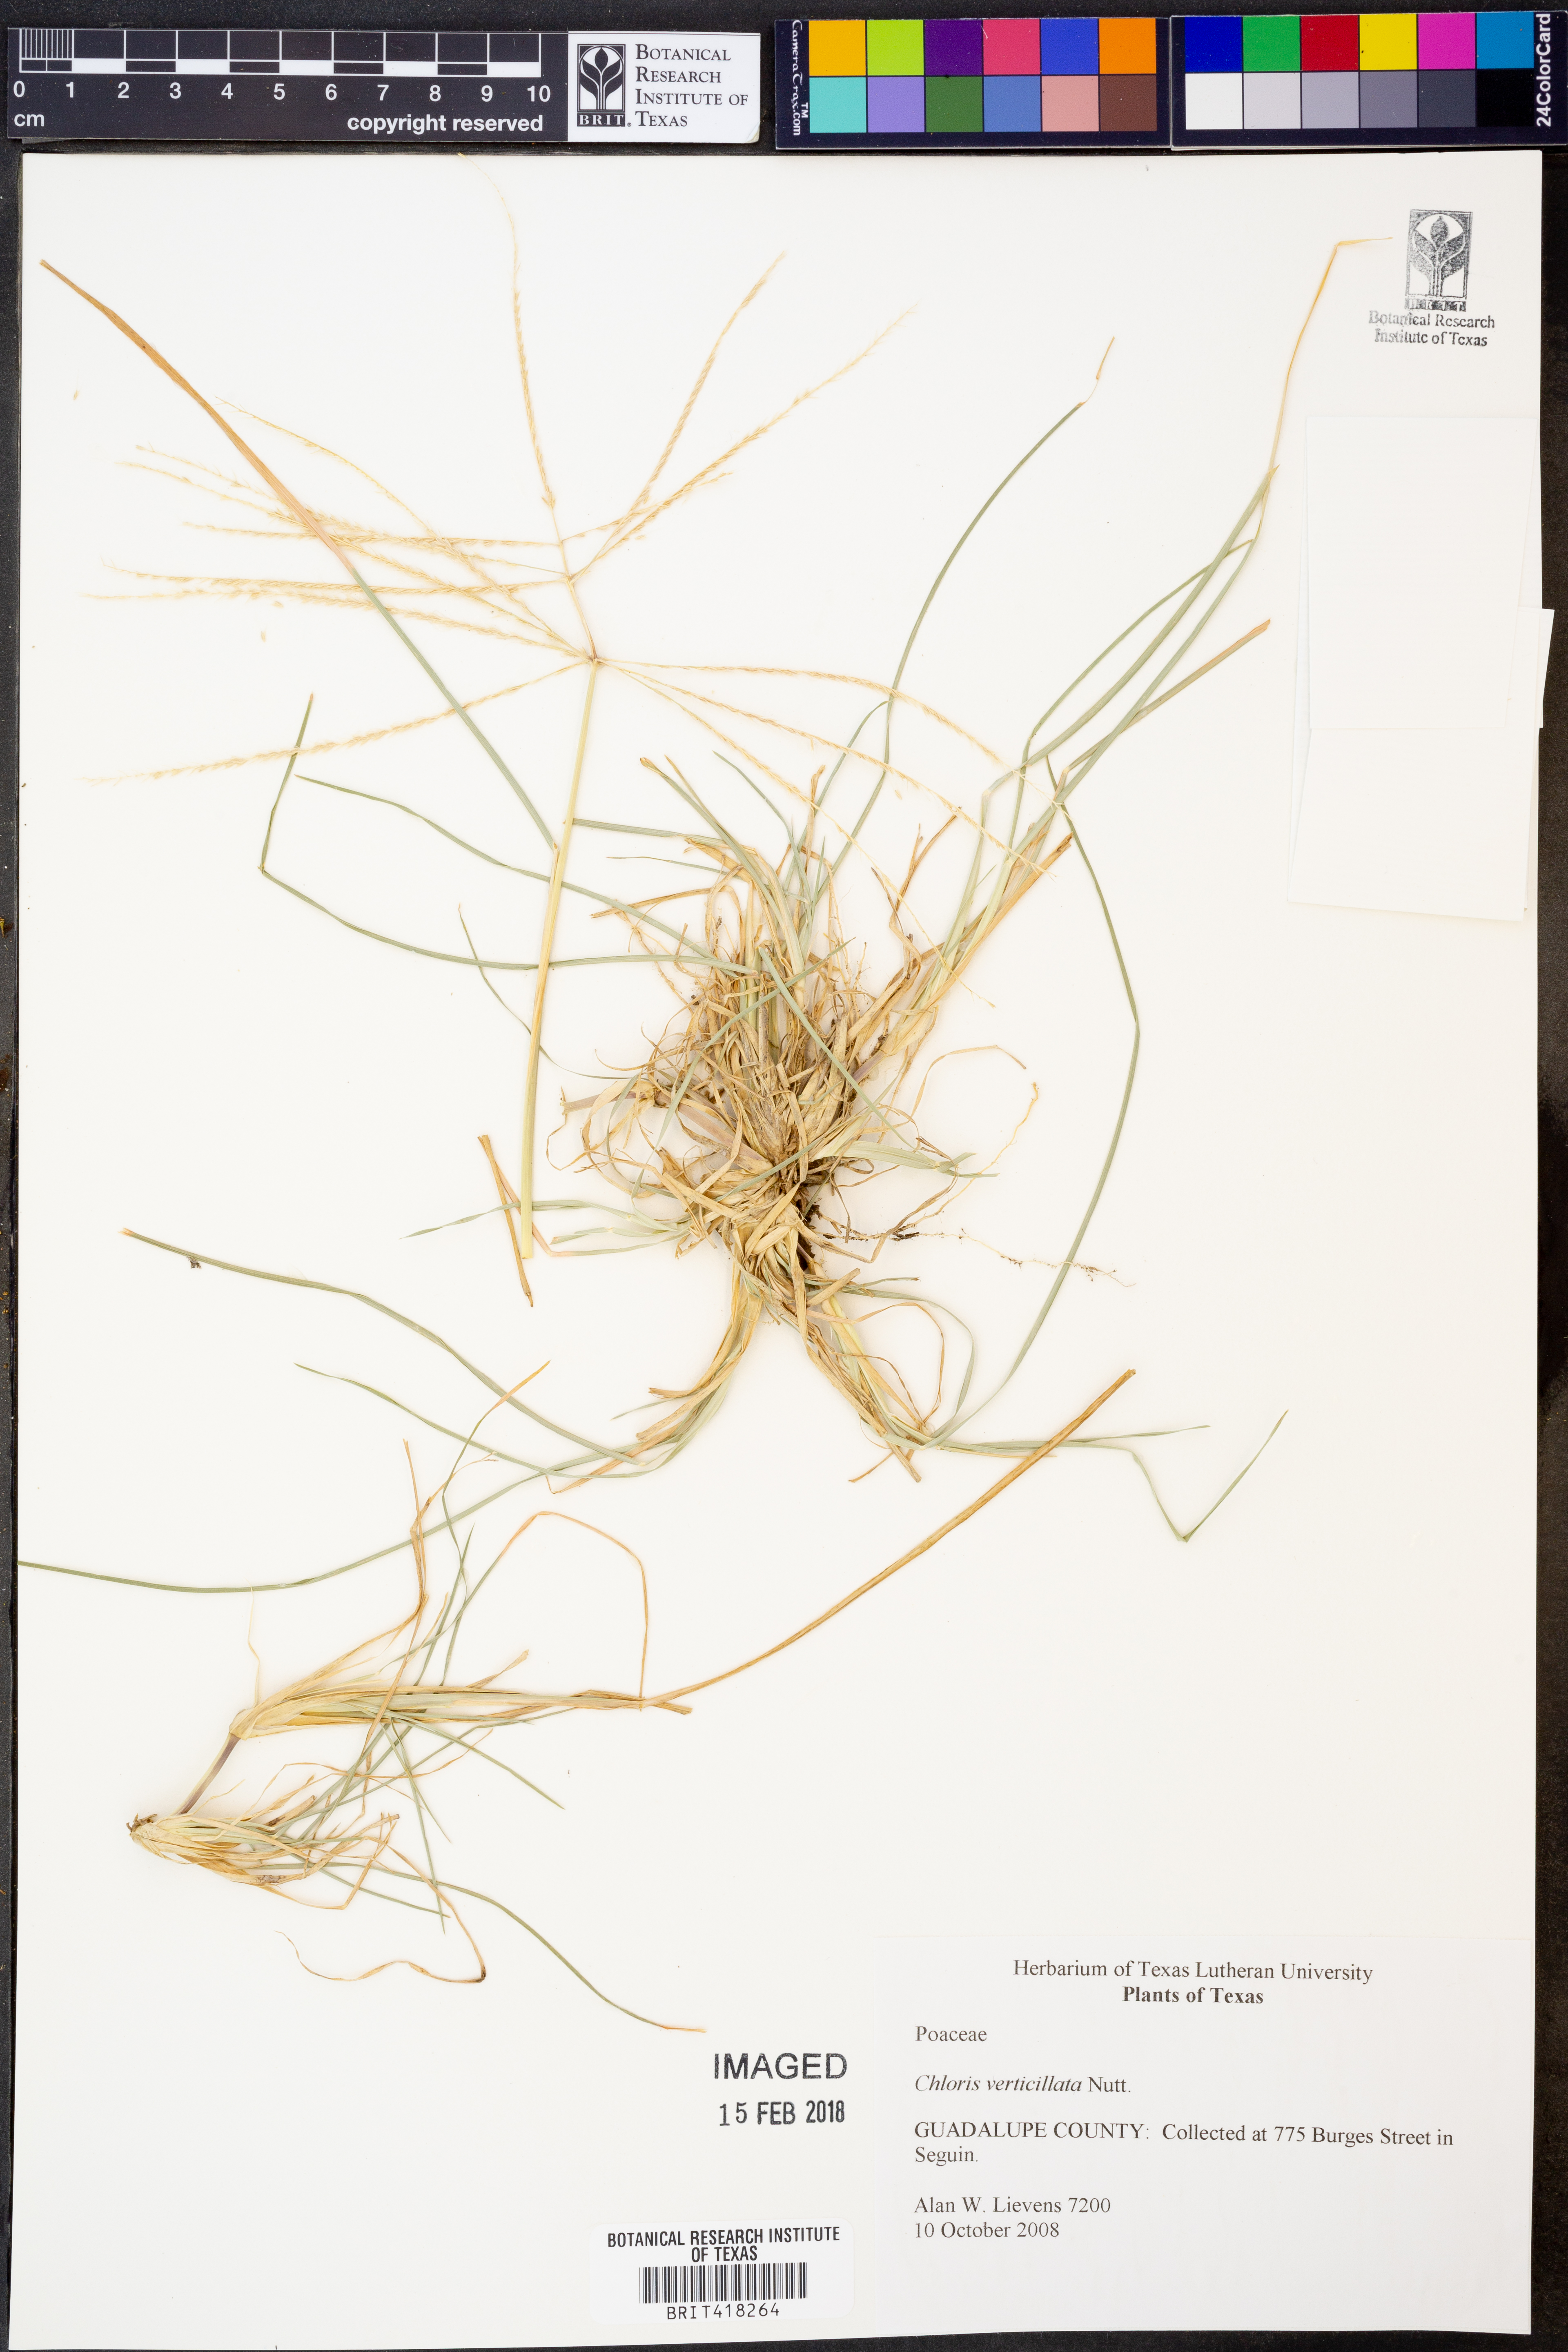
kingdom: Plantae
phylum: Tracheophyta
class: Liliopsida
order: Poales
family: Poaceae
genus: Chloris
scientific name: Chloris verticillata
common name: Tumble windmill grass
